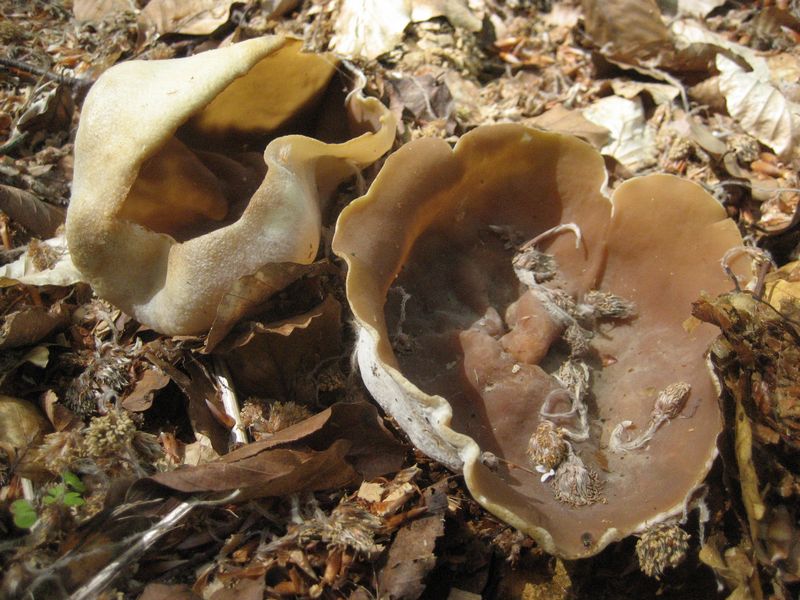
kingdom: Fungi
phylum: Ascomycota
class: Pezizomycetes
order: Pezizales
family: Helvellaceae
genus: Helvella
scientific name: Helvella acetabulum
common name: pokal-foldhat
